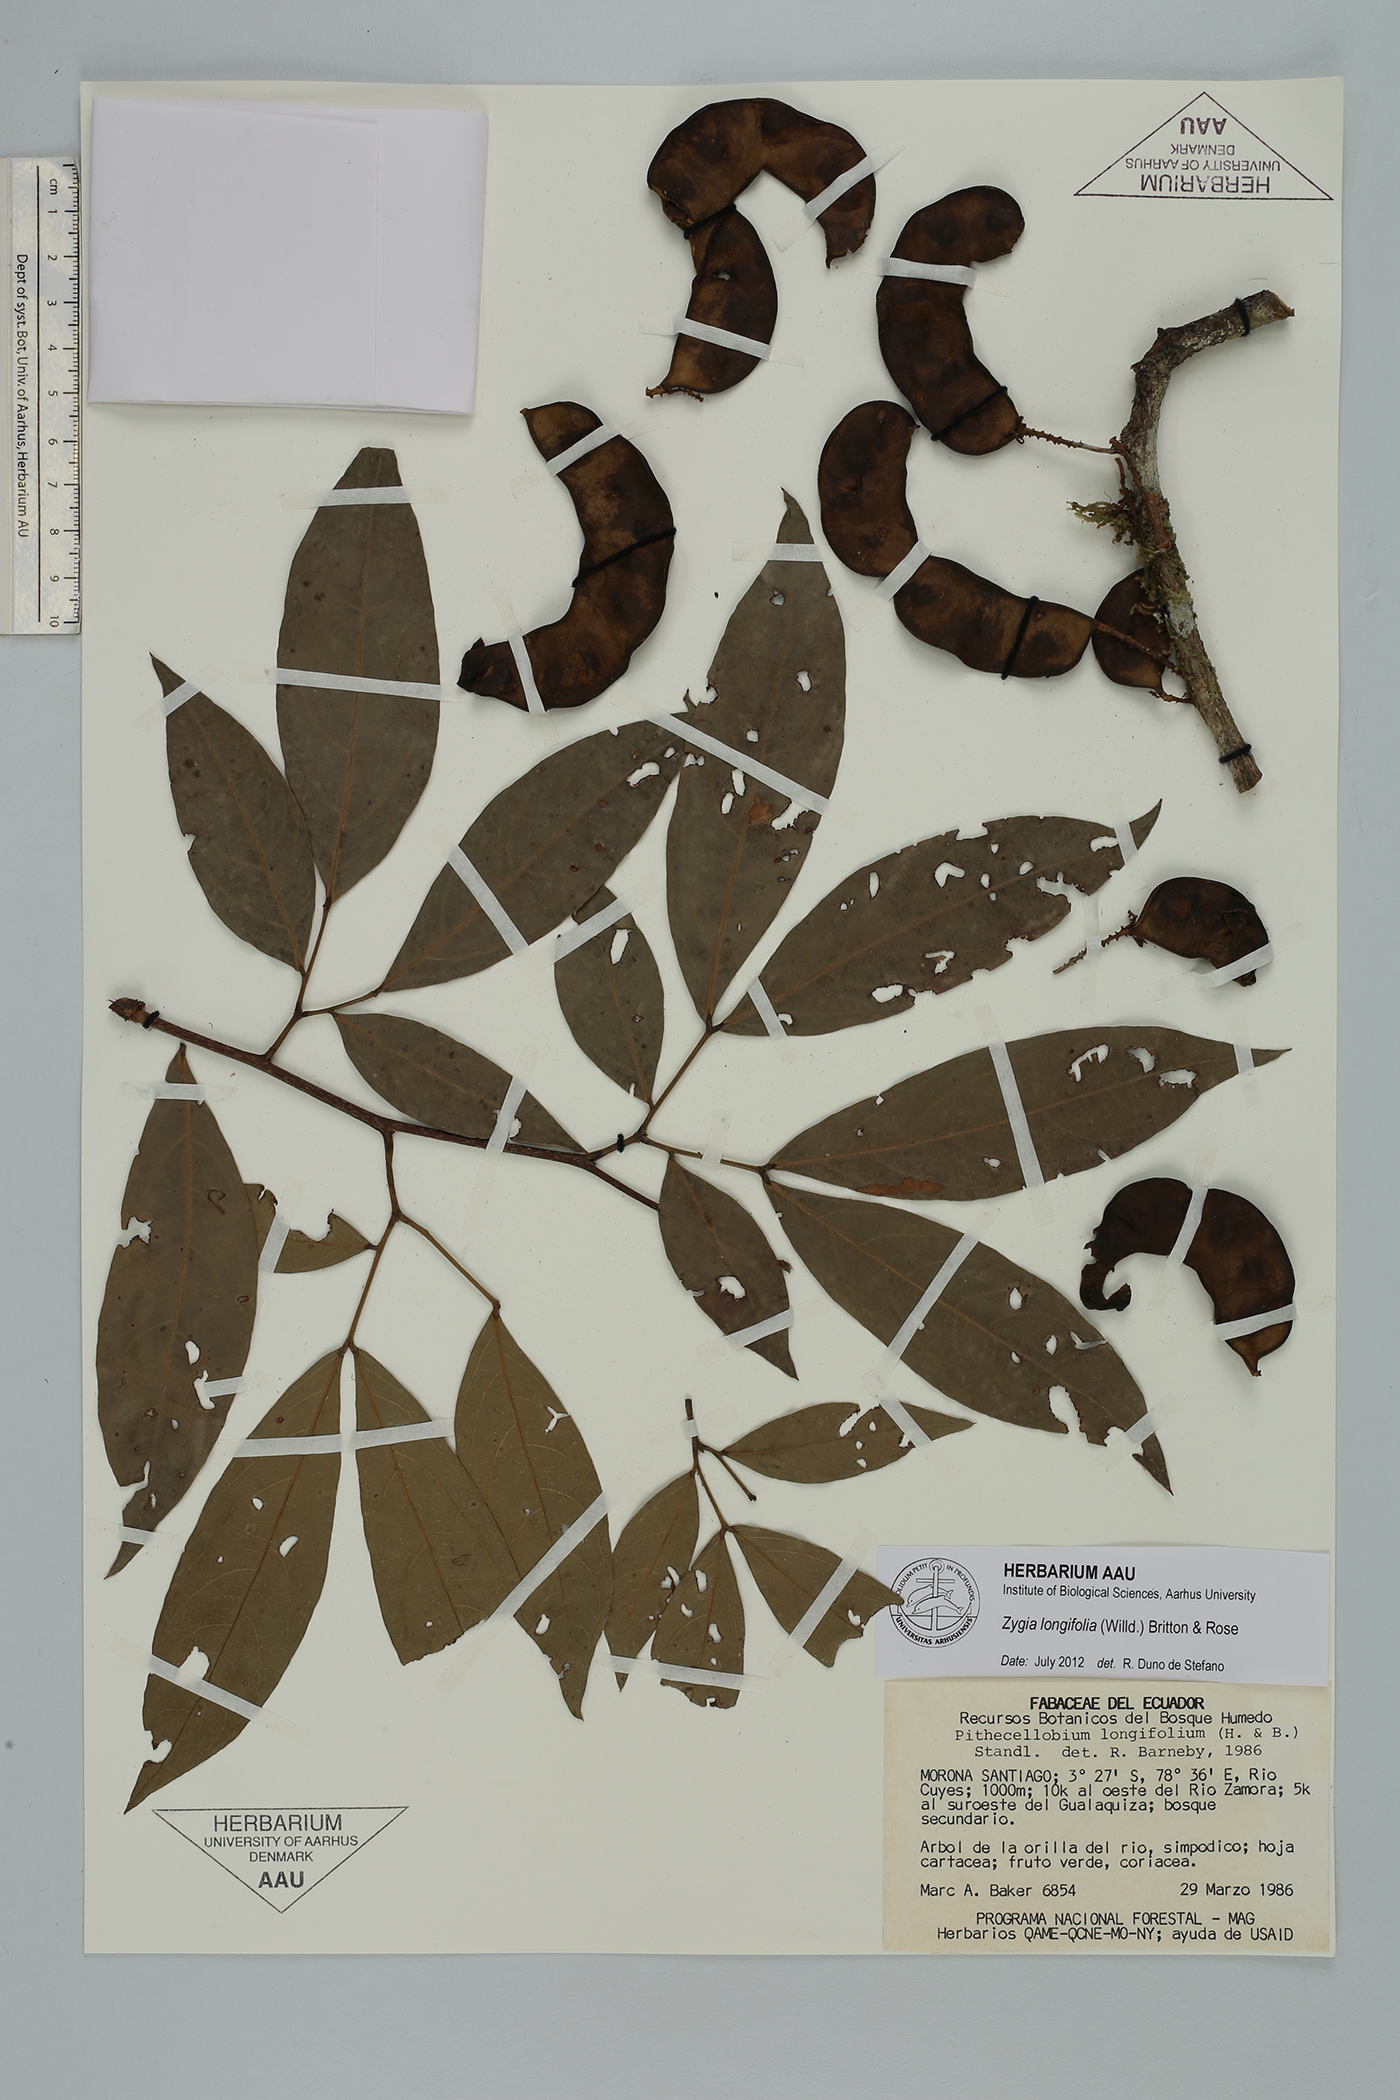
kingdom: Plantae
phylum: Tracheophyta
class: Magnoliopsida
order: Fabales
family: Fabaceae
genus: Zygia
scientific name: Zygia longifolia
